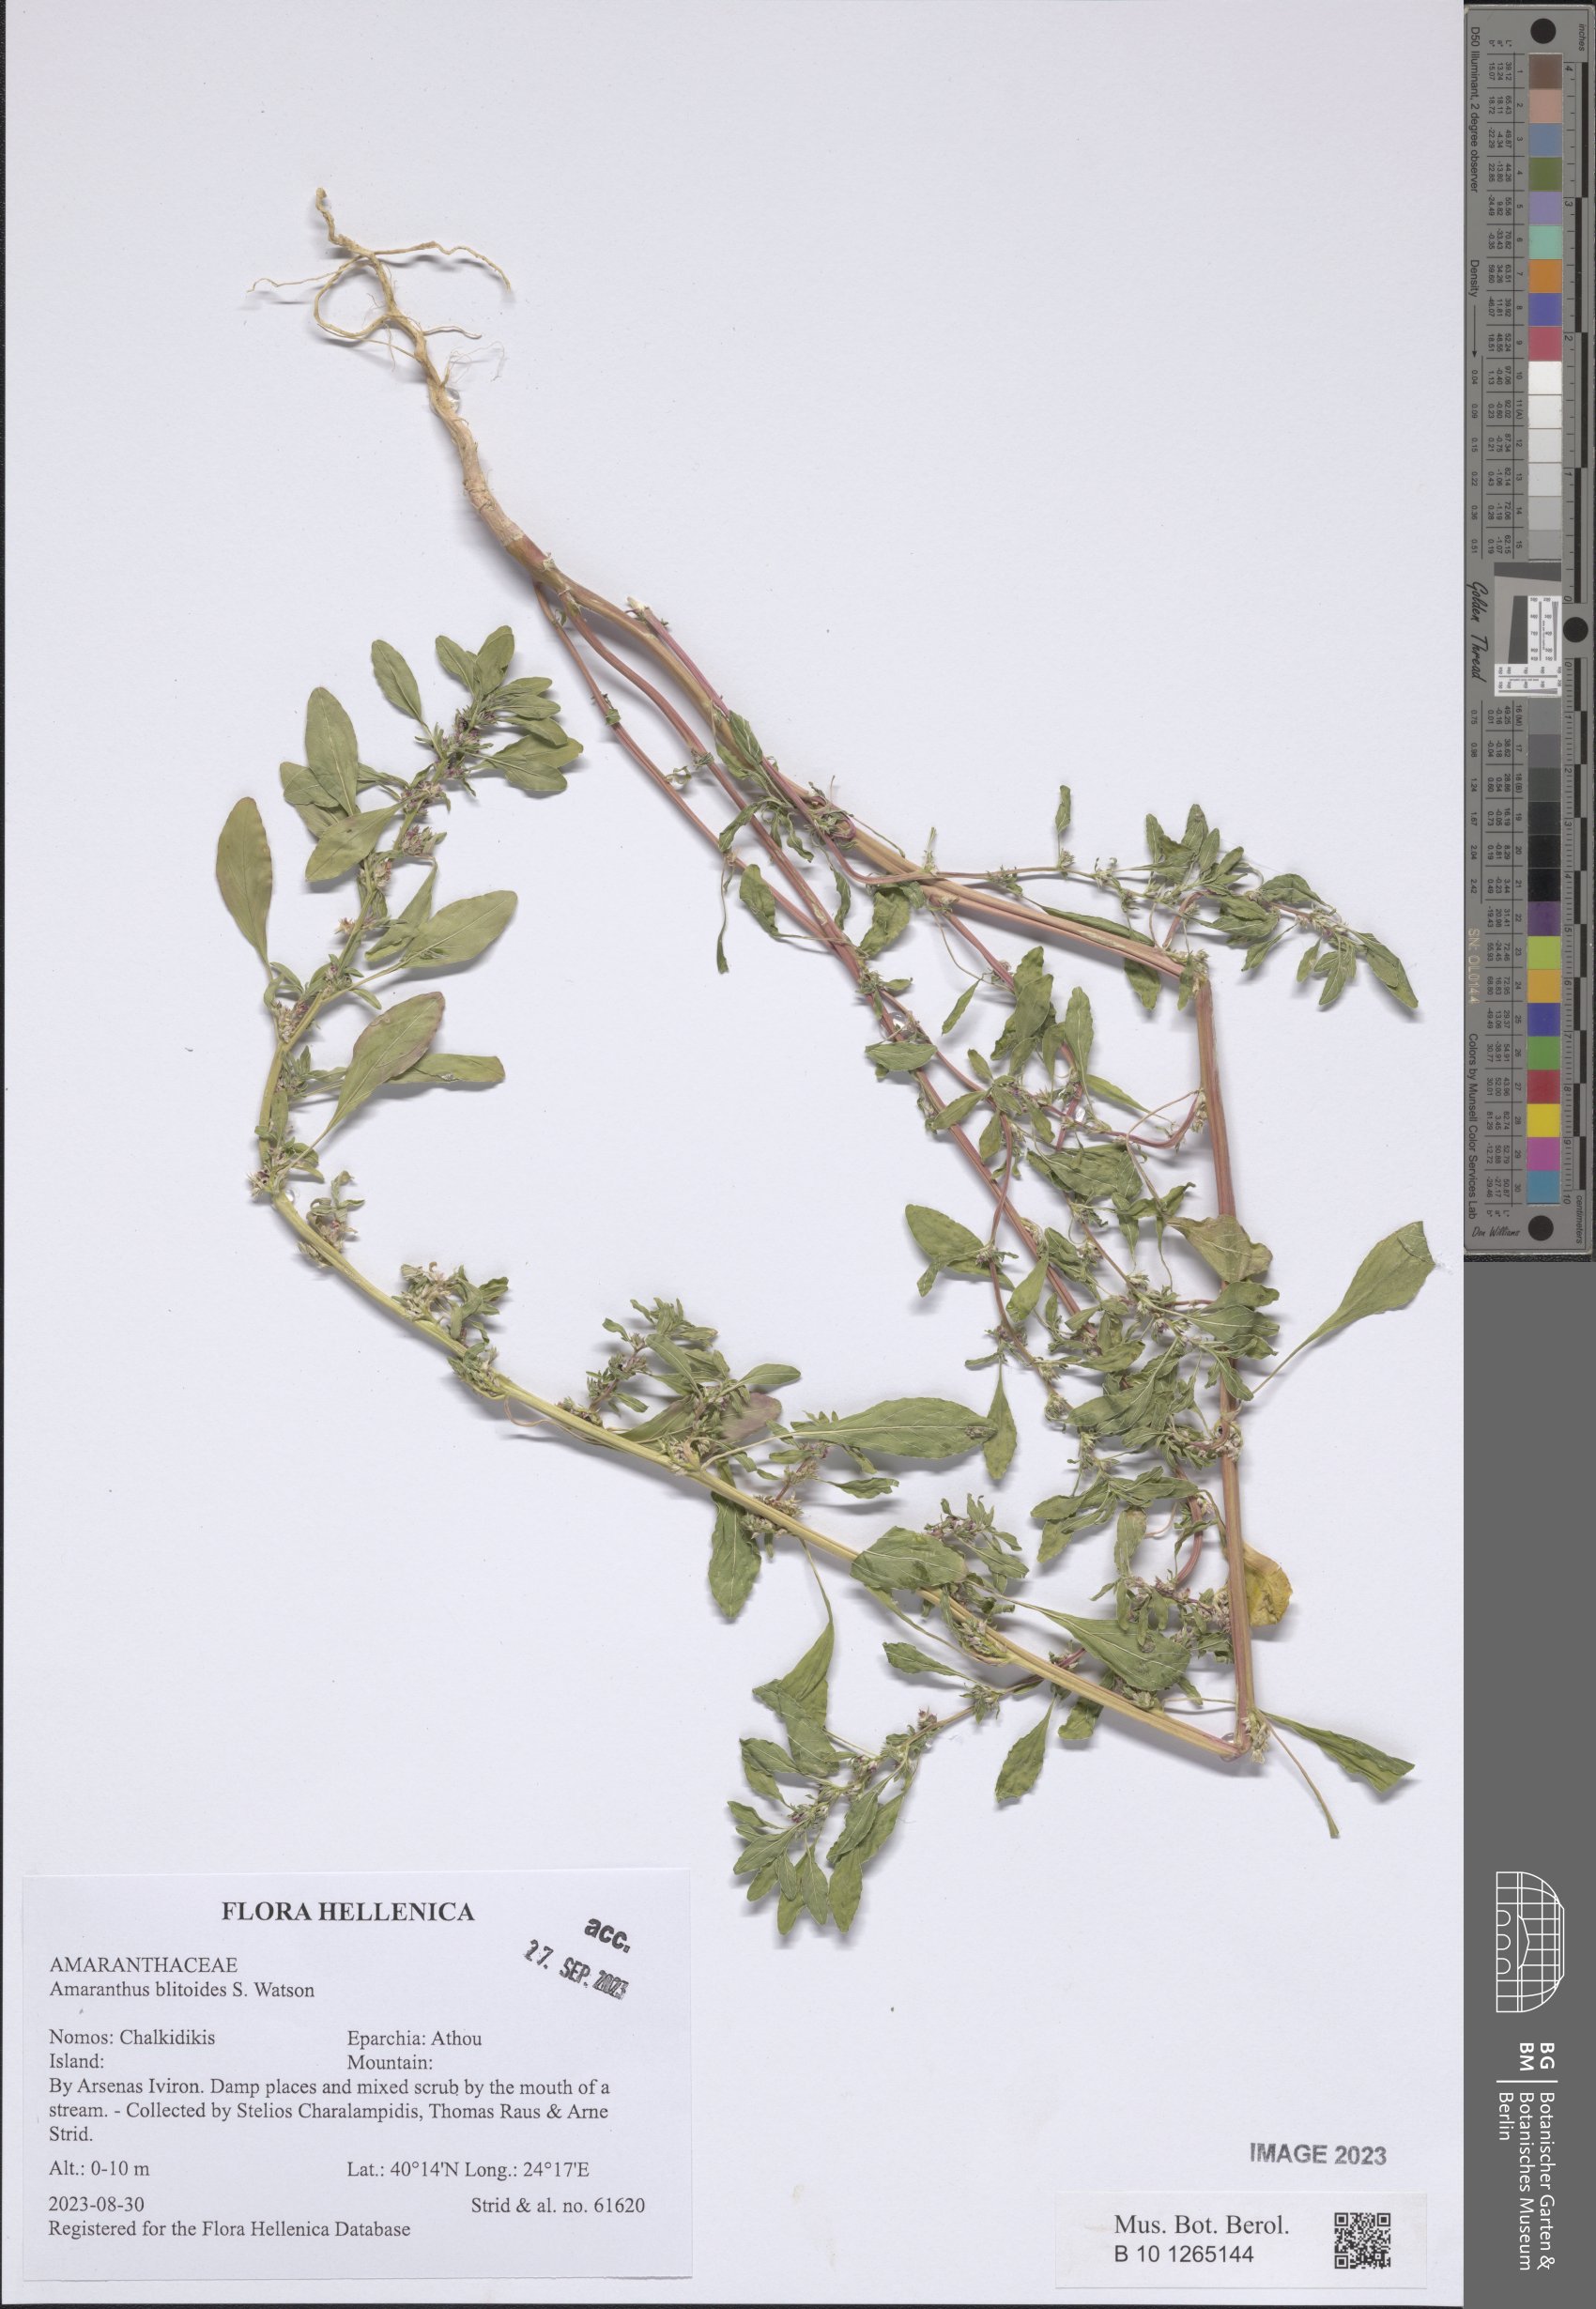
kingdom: Plantae
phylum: Tracheophyta
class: Magnoliopsida
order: Caryophyllales
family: Amaranthaceae
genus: Amaranthus
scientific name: Amaranthus blitoides
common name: Prostrate pigweed
